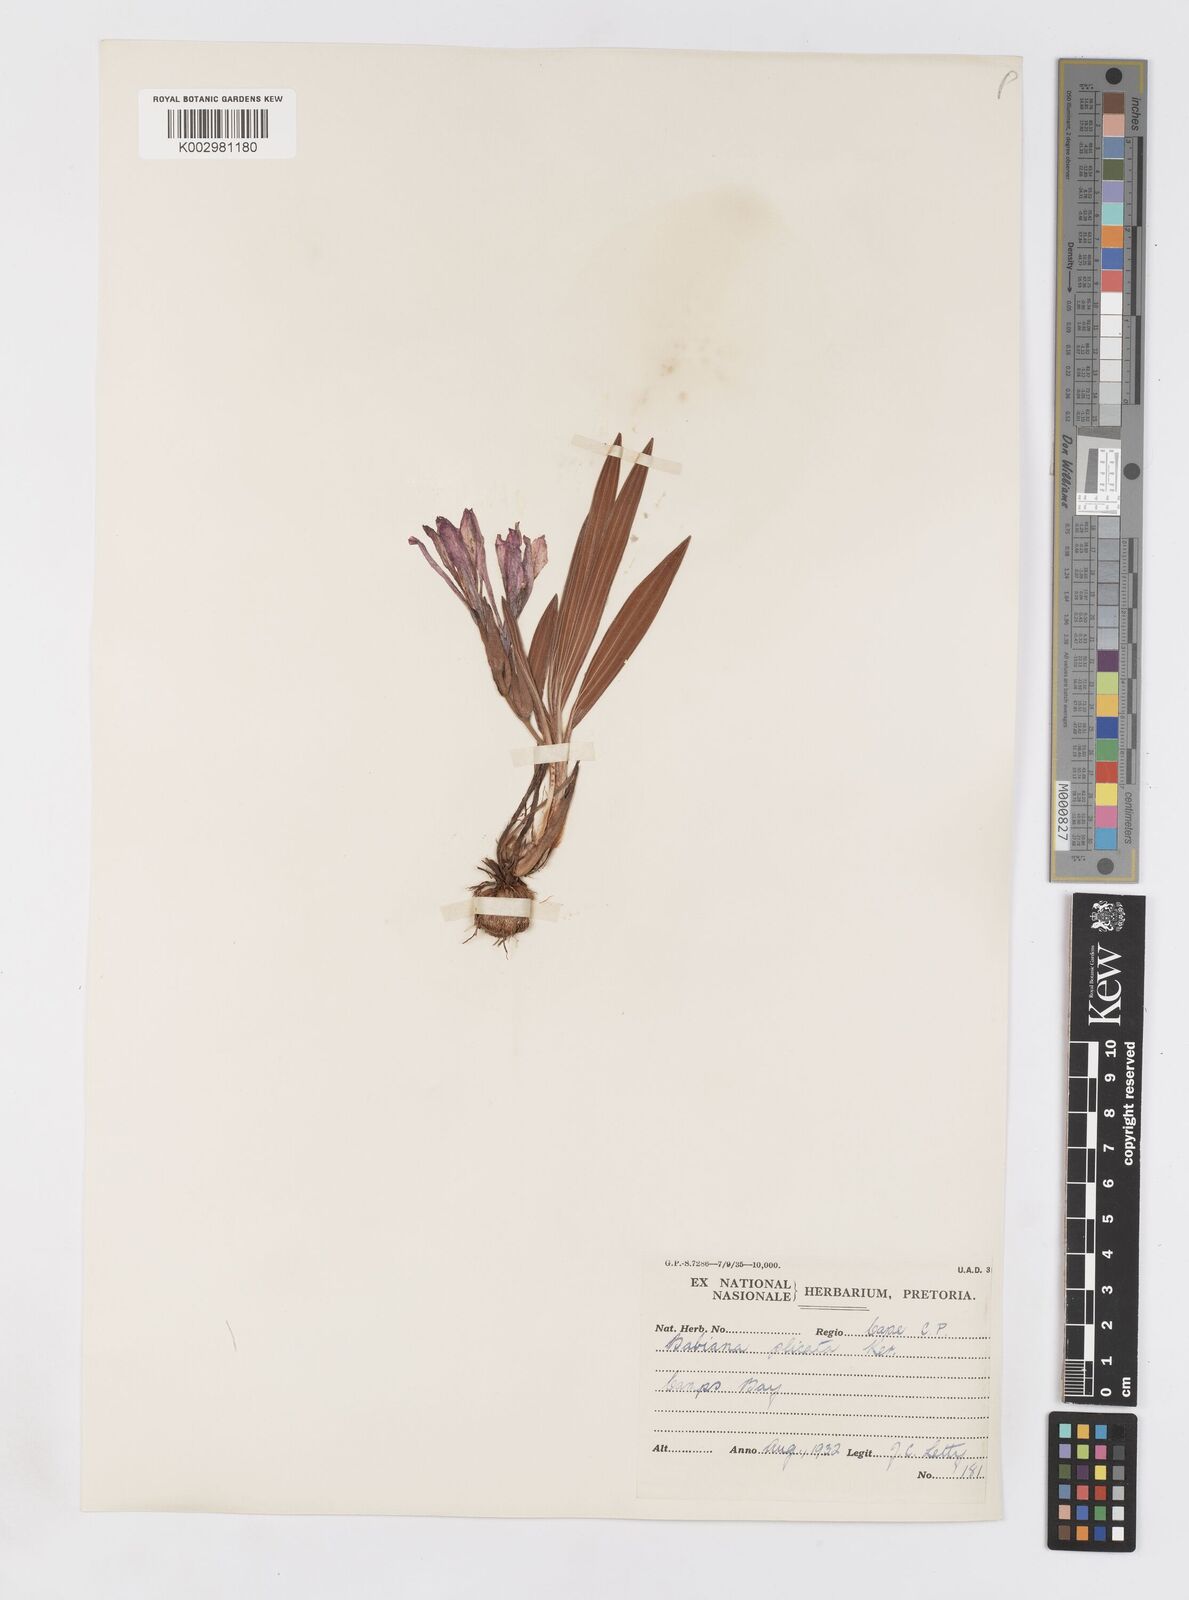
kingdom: Plantae
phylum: Tracheophyta
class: Liliopsida
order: Asparagales
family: Iridaceae
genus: Babiana
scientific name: Babiana fragrans
